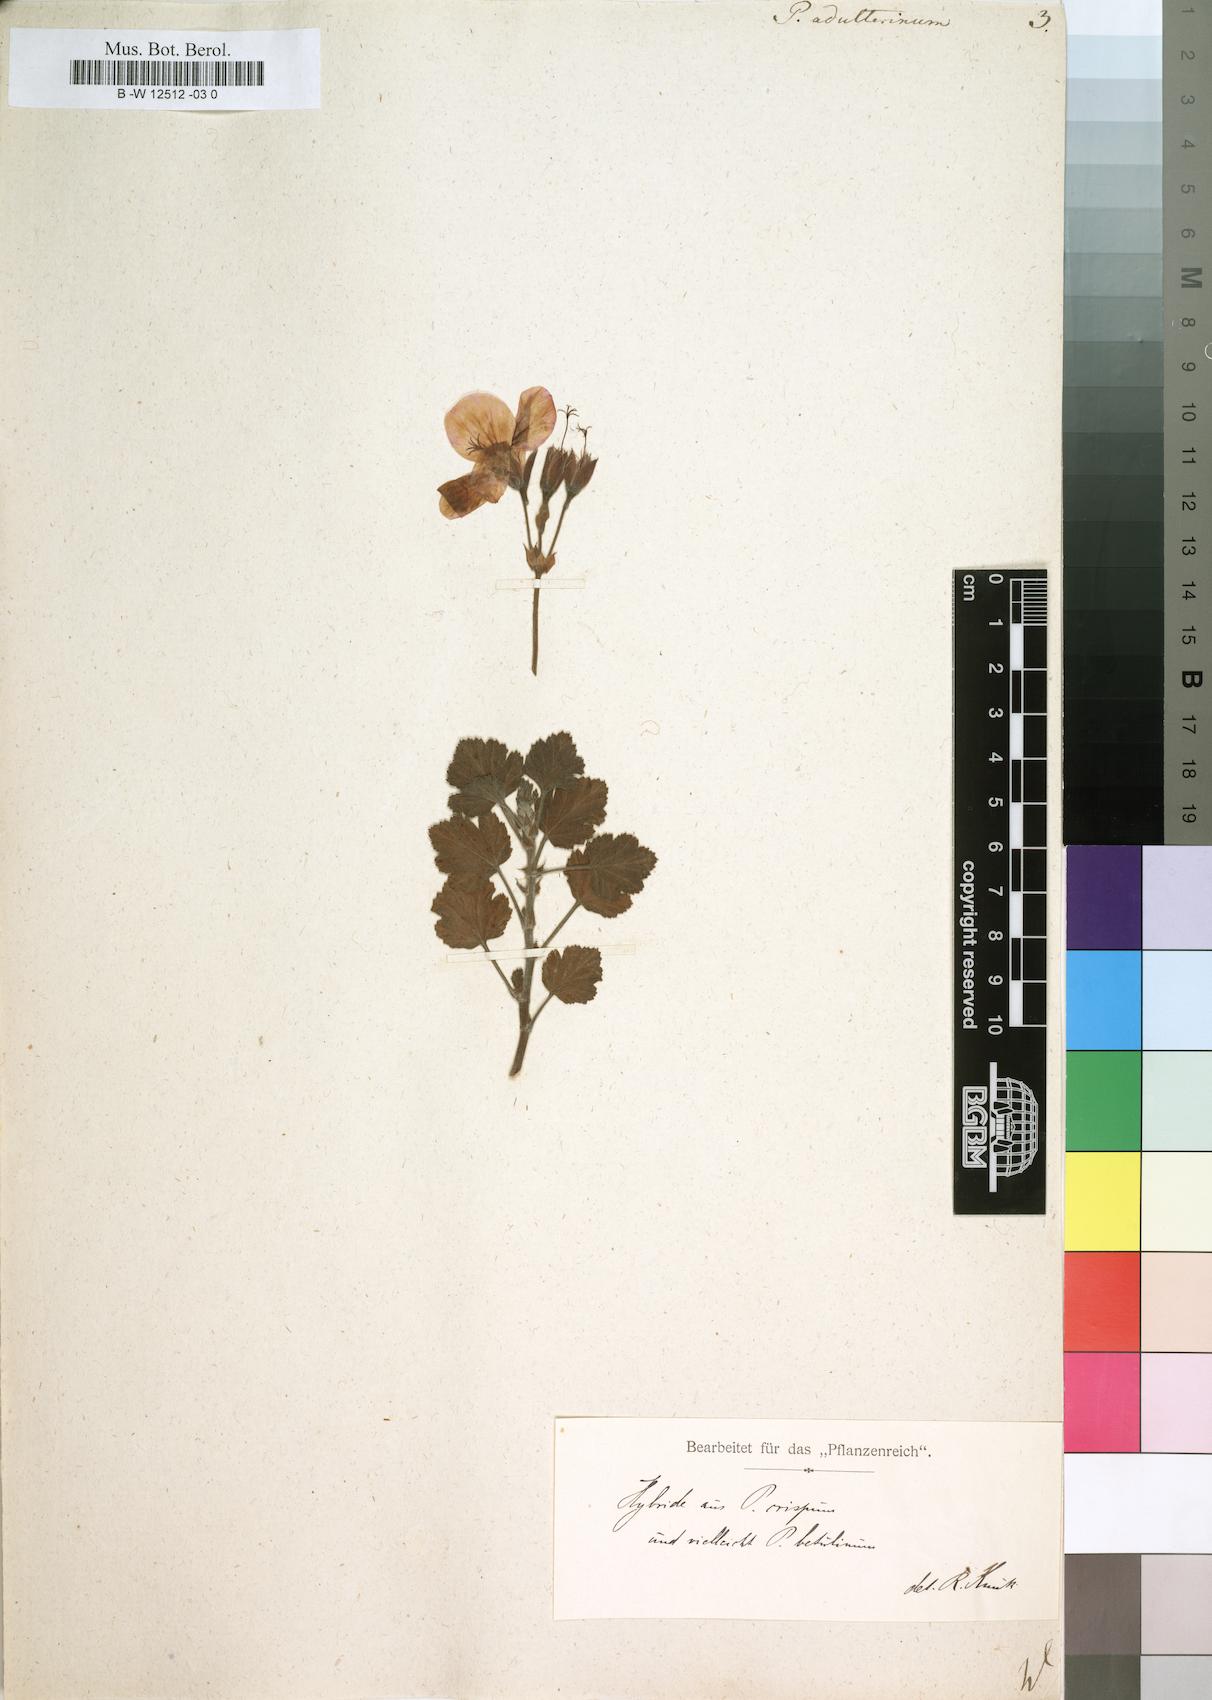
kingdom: Plantae
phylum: Tracheophyta
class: Magnoliopsida
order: Geraniales
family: Geraniaceae
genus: Pelargonium
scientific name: Pelargonium
